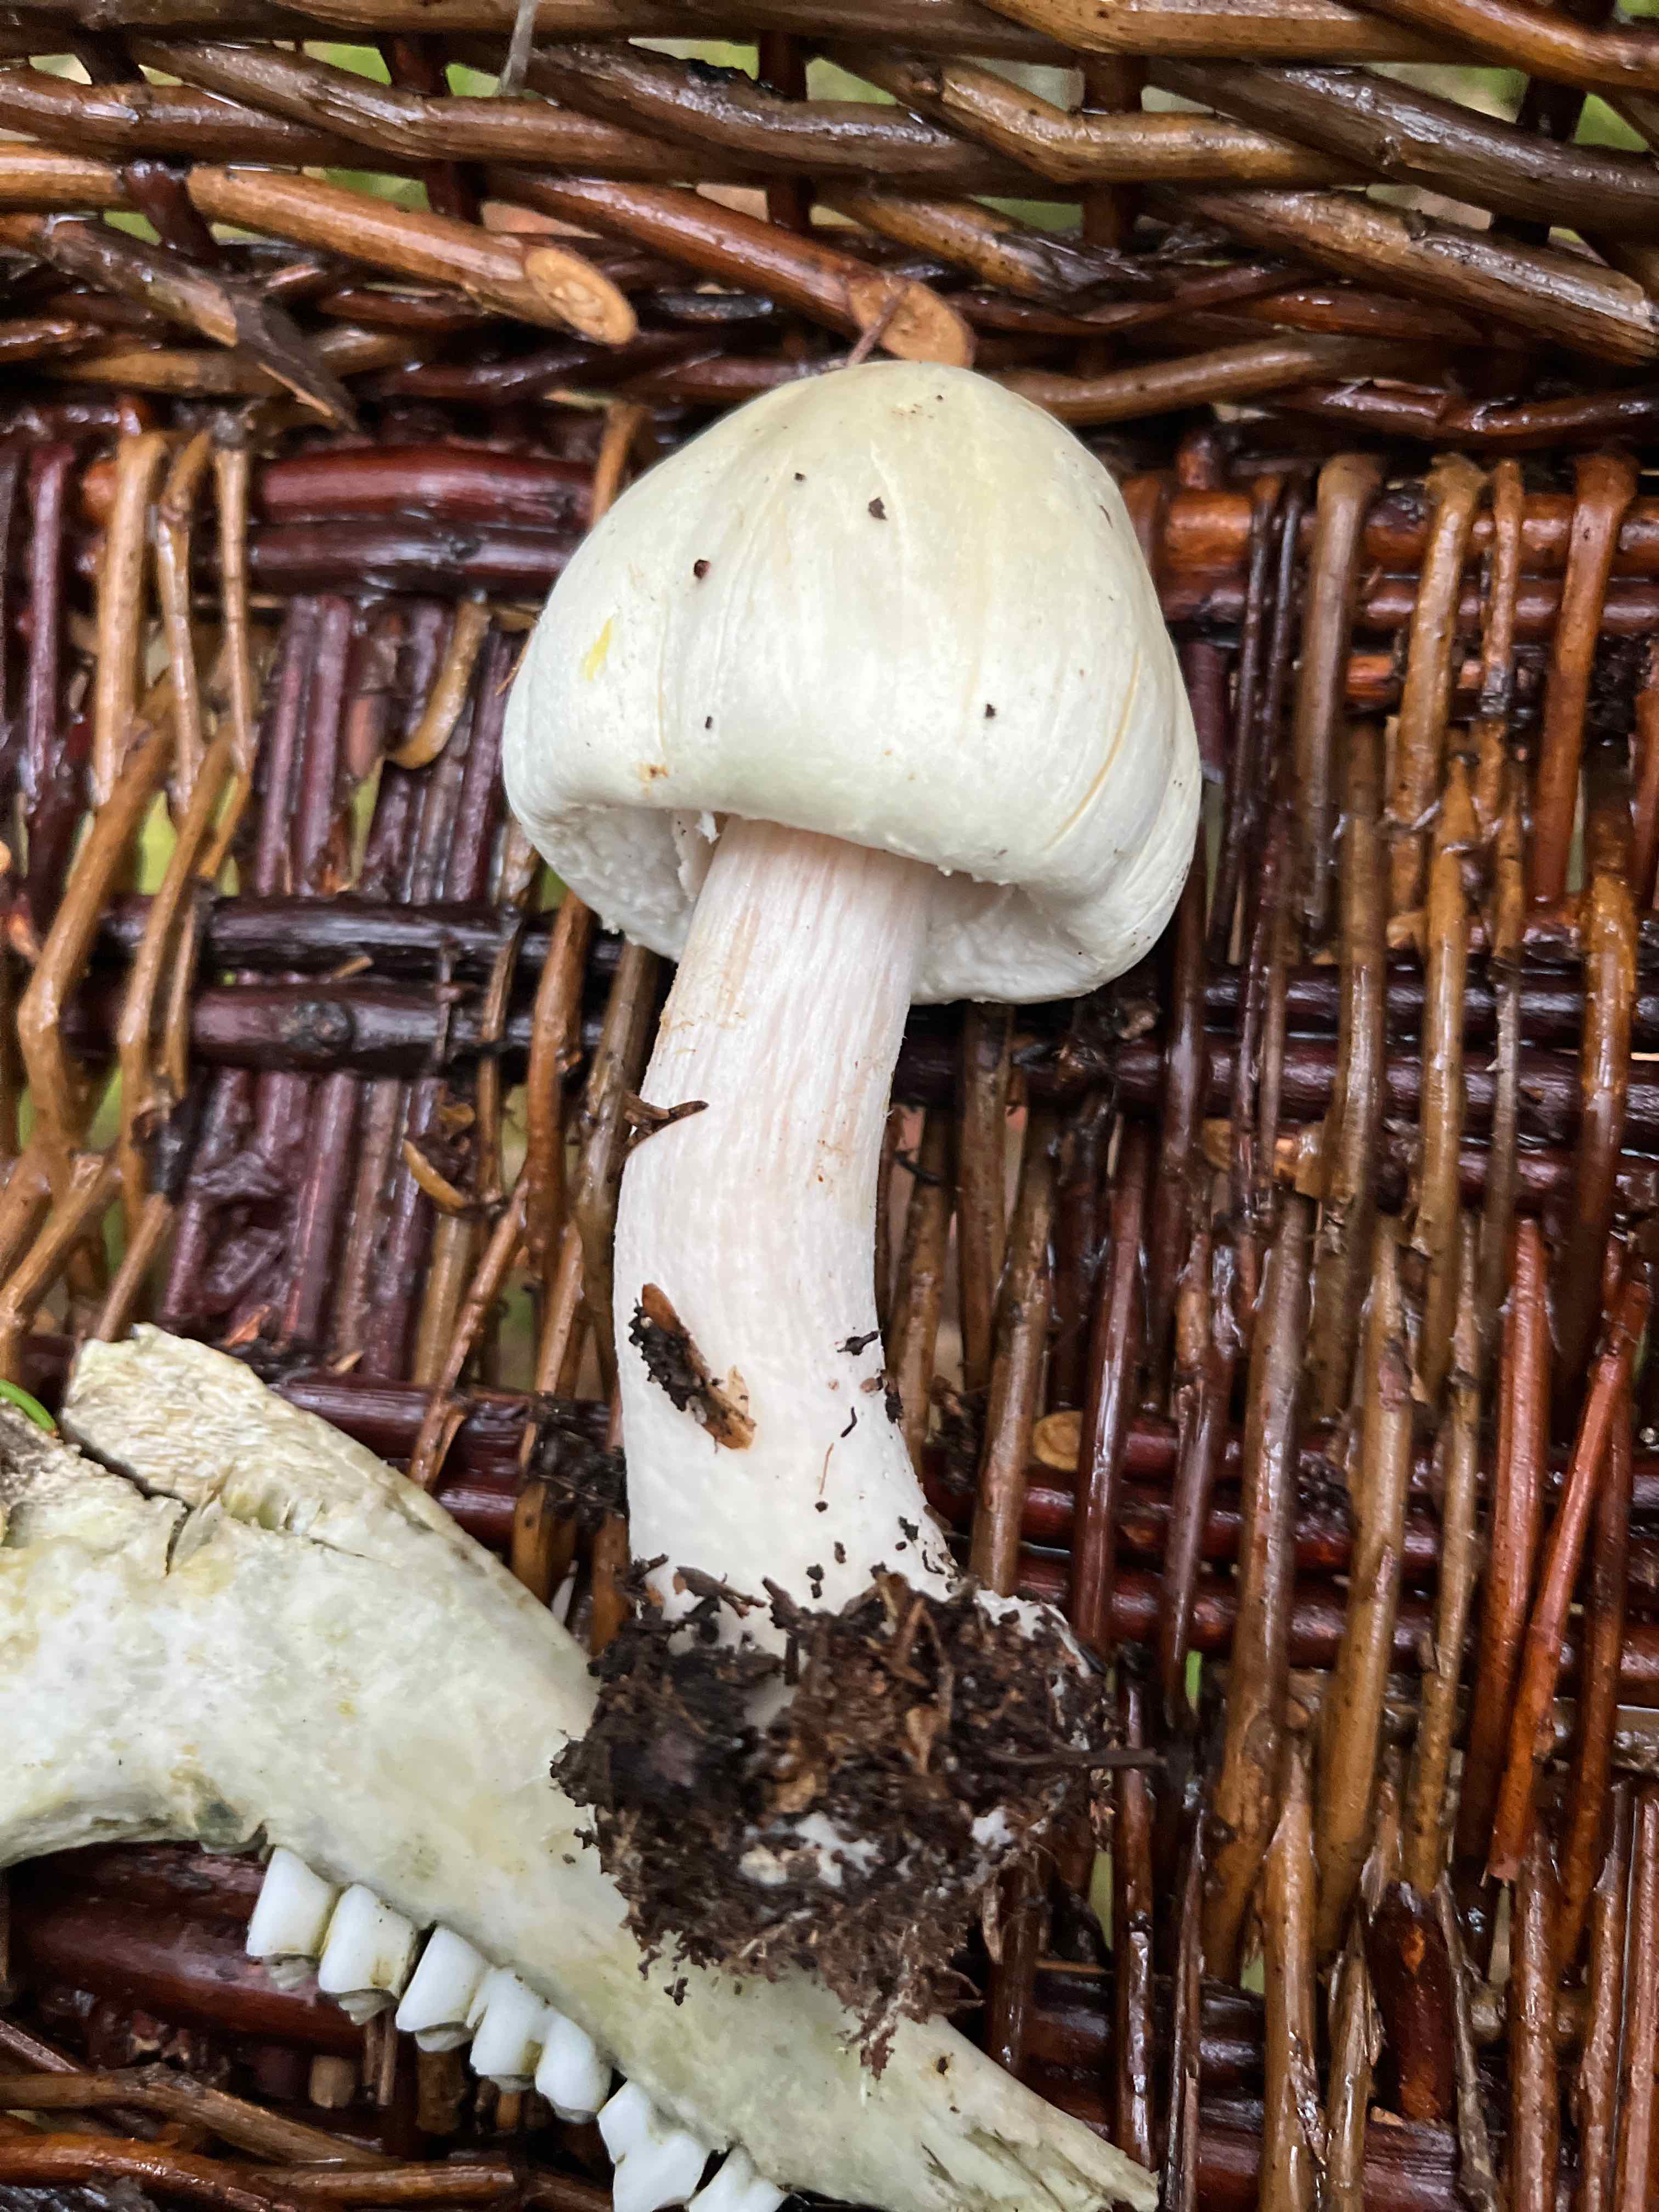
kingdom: Fungi
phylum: Basidiomycota
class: Agaricomycetes
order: Agaricales
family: Agaricaceae
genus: Agaricus
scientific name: Agaricus
